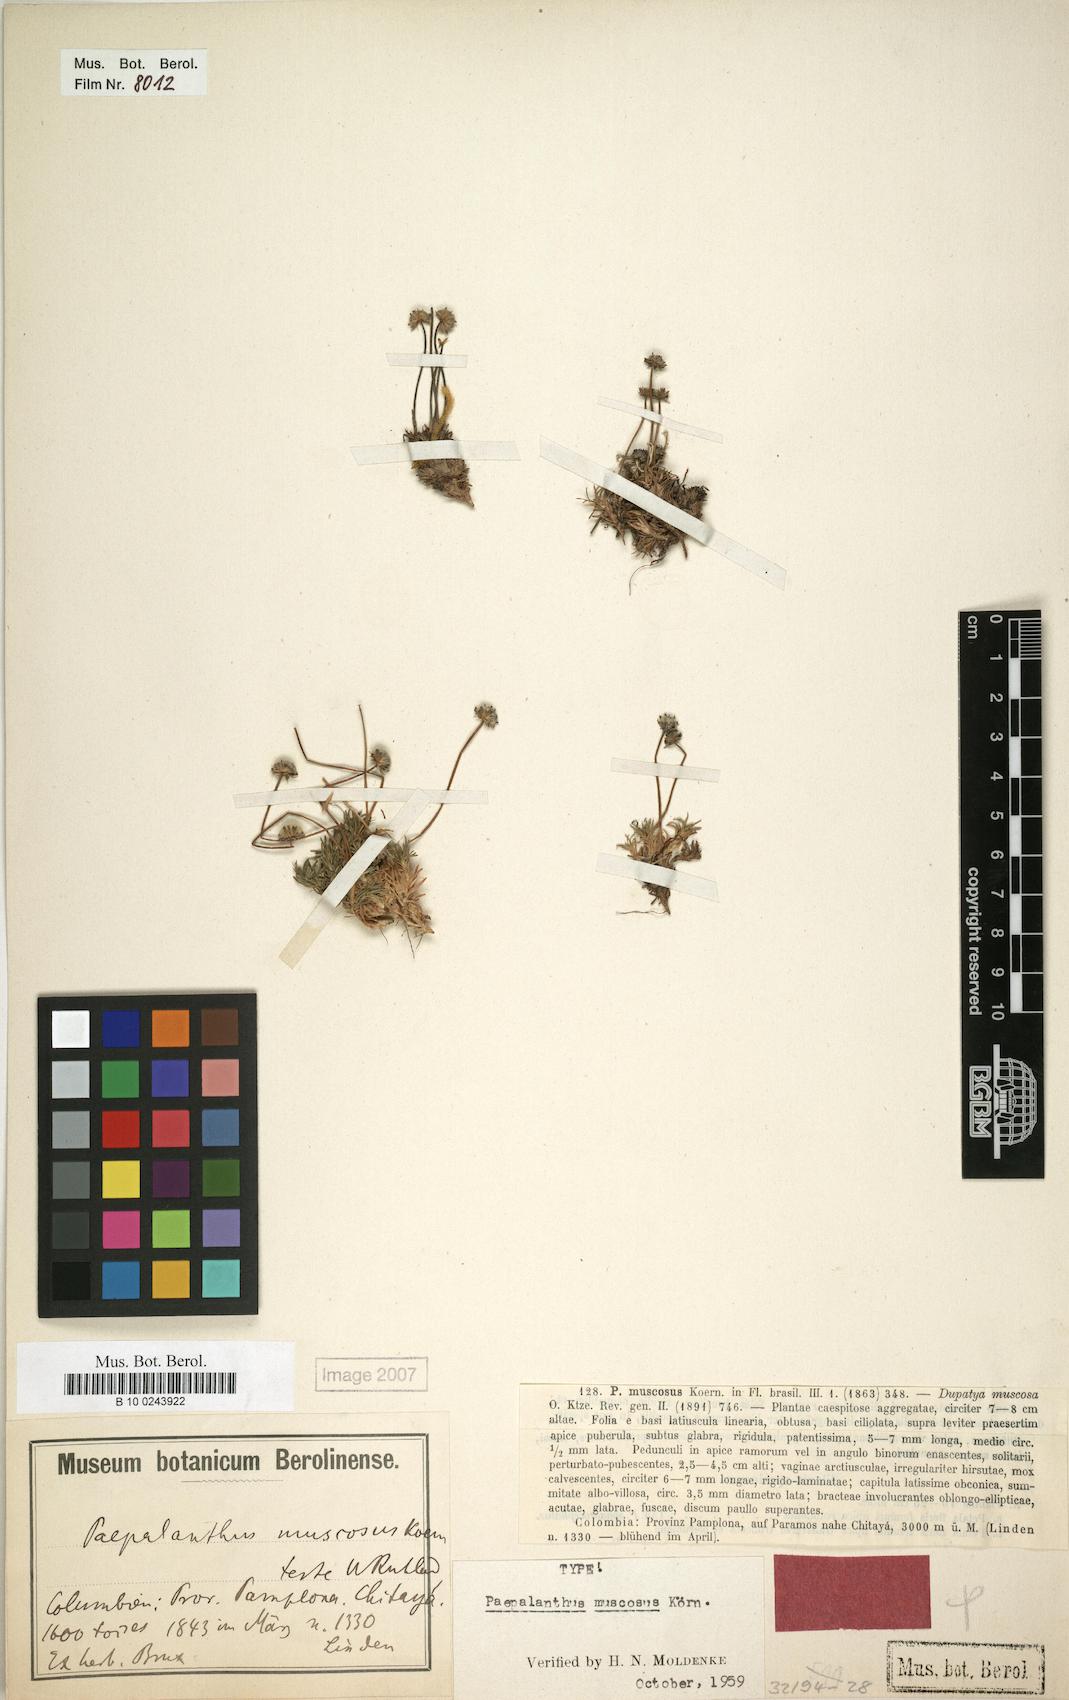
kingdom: Plantae
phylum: Tracheophyta
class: Liliopsida
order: Poales
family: Eriocaulaceae
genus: Paepalanthus
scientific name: Paepalanthus muscosus
